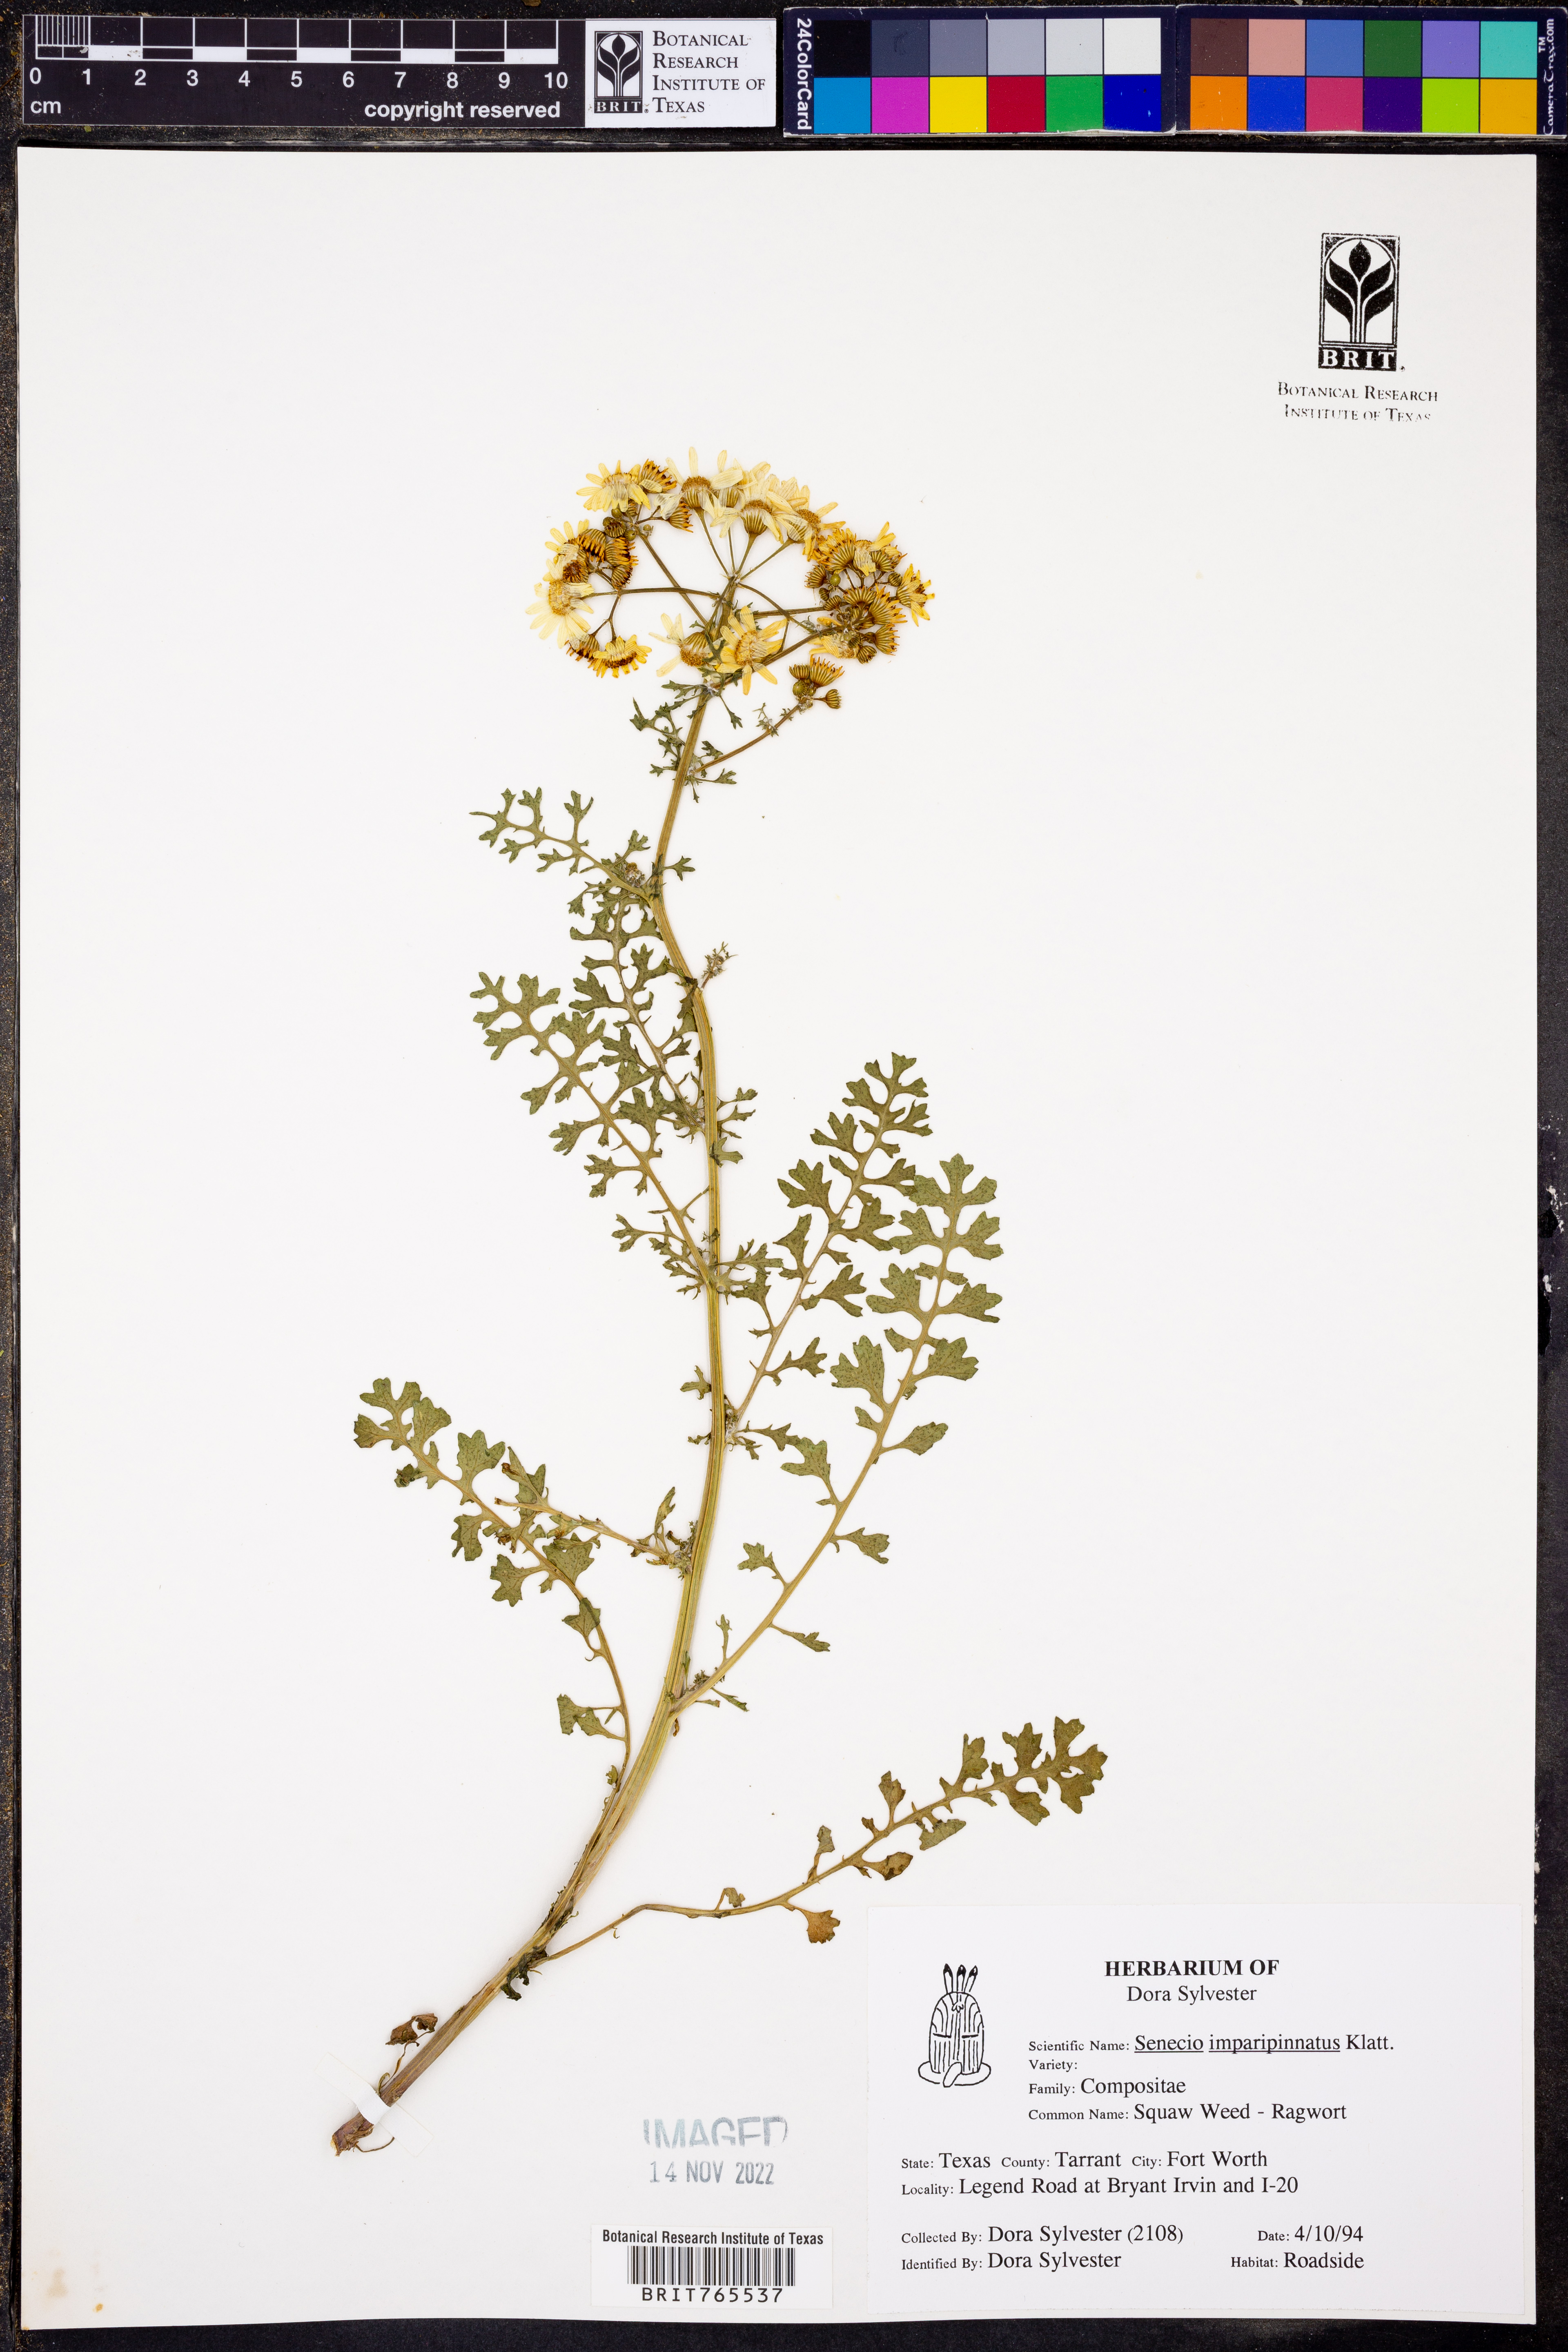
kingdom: Plantae
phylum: Tracheophyta
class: Magnoliopsida
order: Asterales
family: Asteraceae
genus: Packera
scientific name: Packera tampicana
